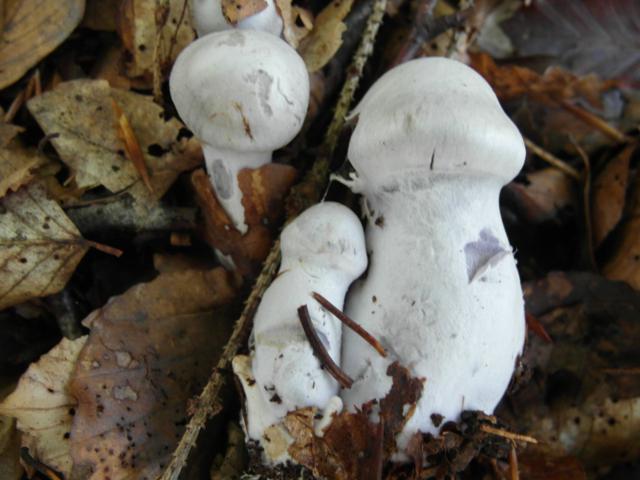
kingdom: Fungi
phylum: Basidiomycota
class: Agaricomycetes
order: Agaricales
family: Cortinariaceae
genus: Cortinarius
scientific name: Cortinarius alboviolaceus
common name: lysviolet slørhat
